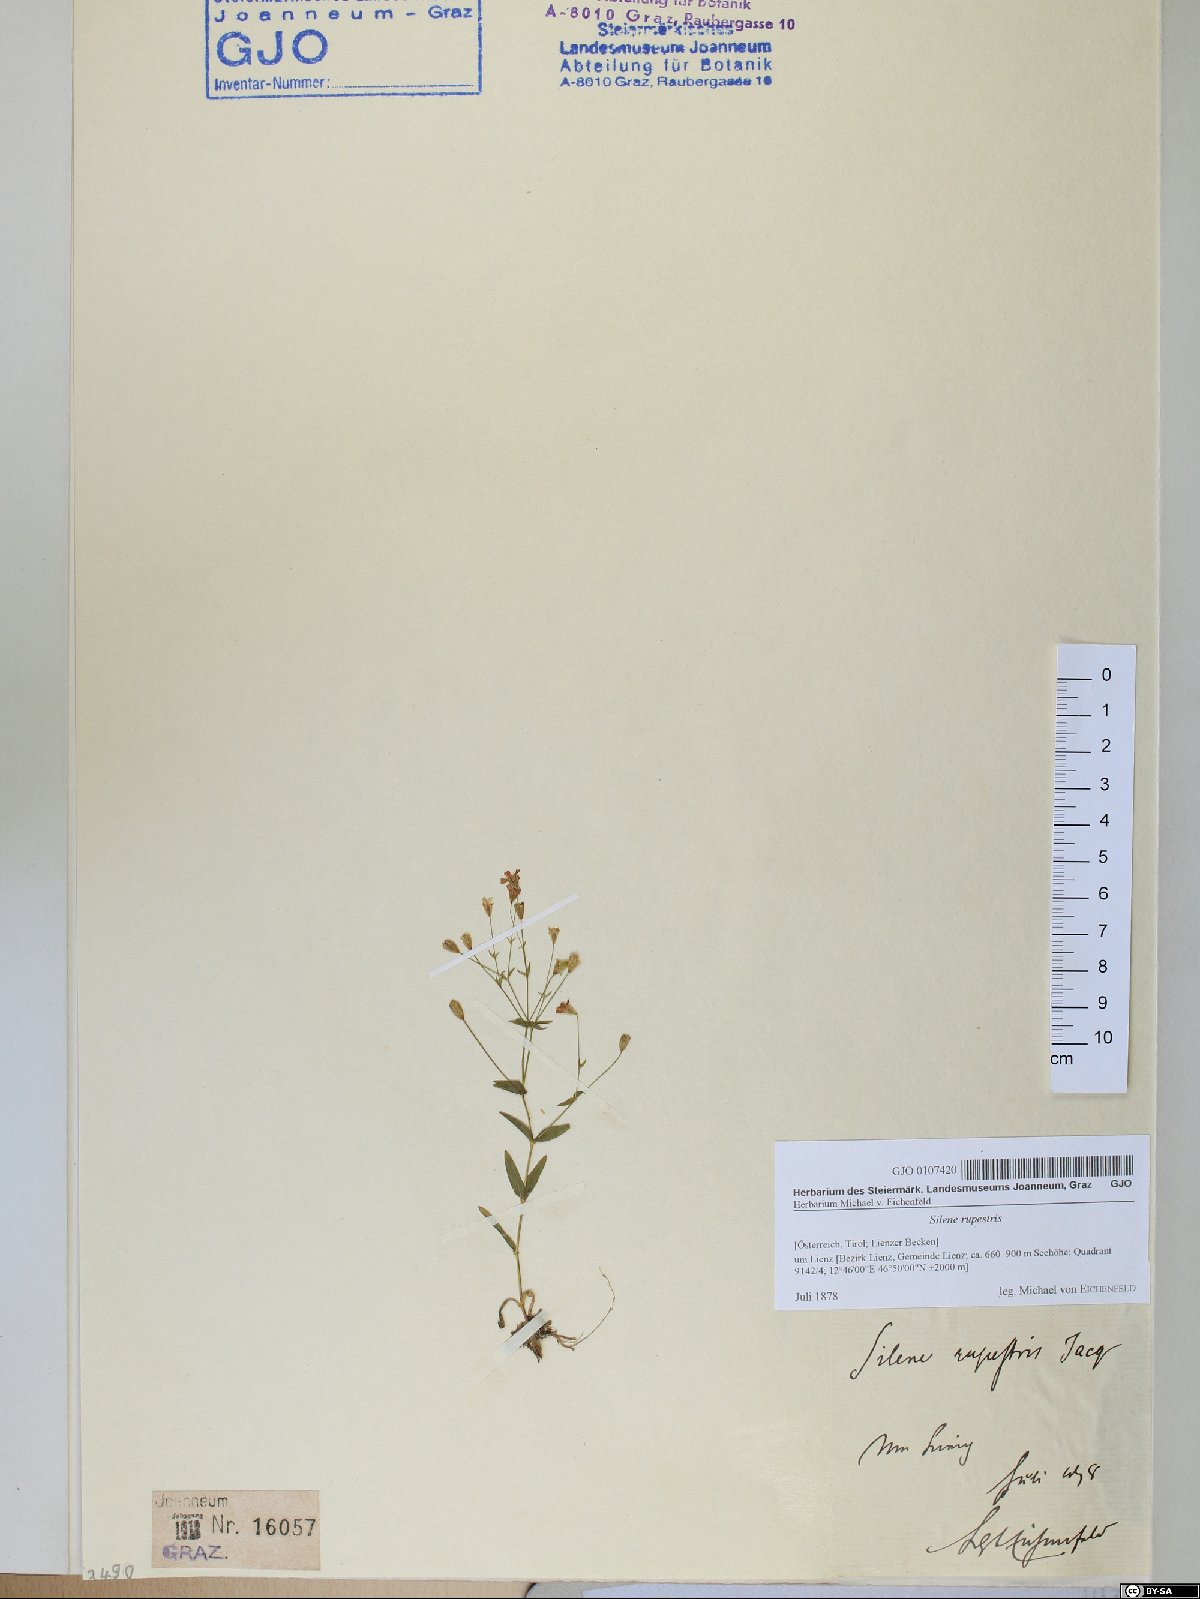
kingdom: Plantae
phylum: Tracheophyta
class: Magnoliopsida
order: Caryophyllales
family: Caryophyllaceae
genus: Atocion
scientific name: Atocion rupestre
